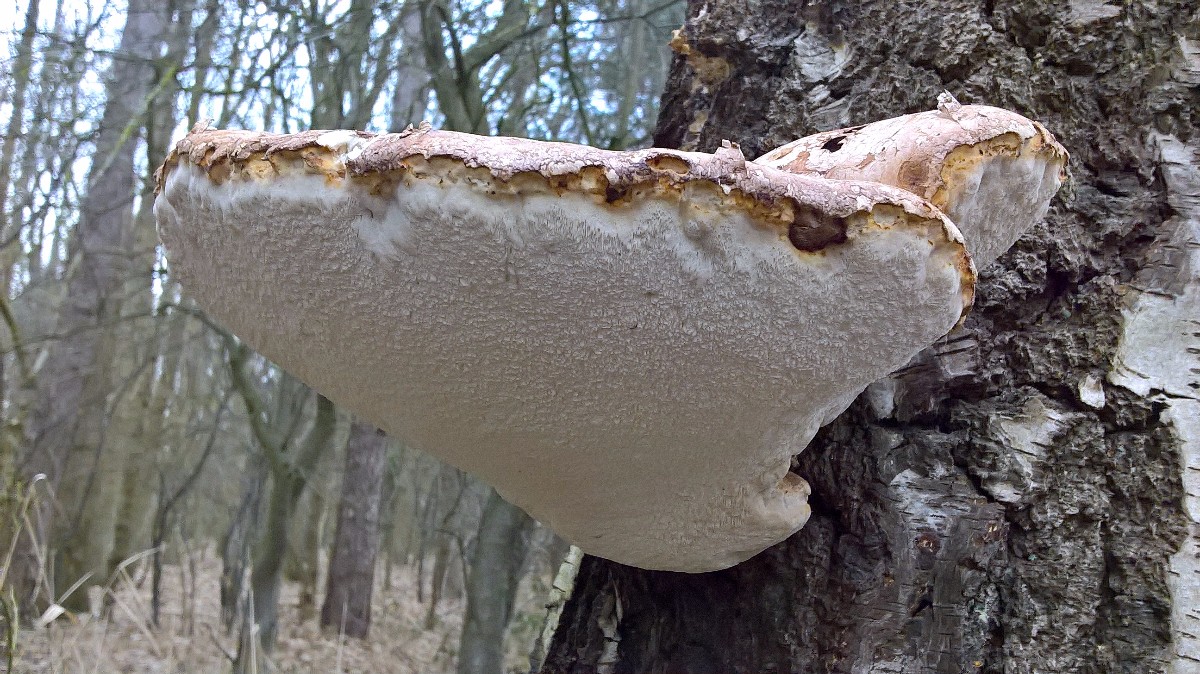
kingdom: Fungi
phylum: Basidiomycota
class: Agaricomycetes
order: Polyporales
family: Fomitopsidaceae
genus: Fomitopsis
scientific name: Fomitopsis betulina
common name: birkeporesvamp
